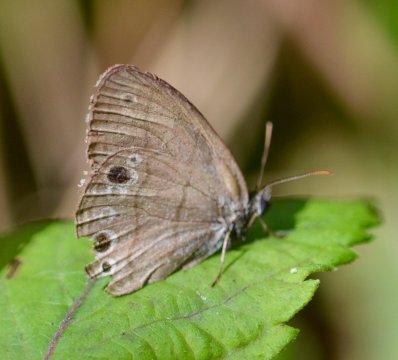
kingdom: Animalia
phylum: Arthropoda
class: Insecta
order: Lepidoptera
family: Nymphalidae
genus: Hermeuptychia
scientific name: Hermeuptychia hermes
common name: Carolina Satyr
